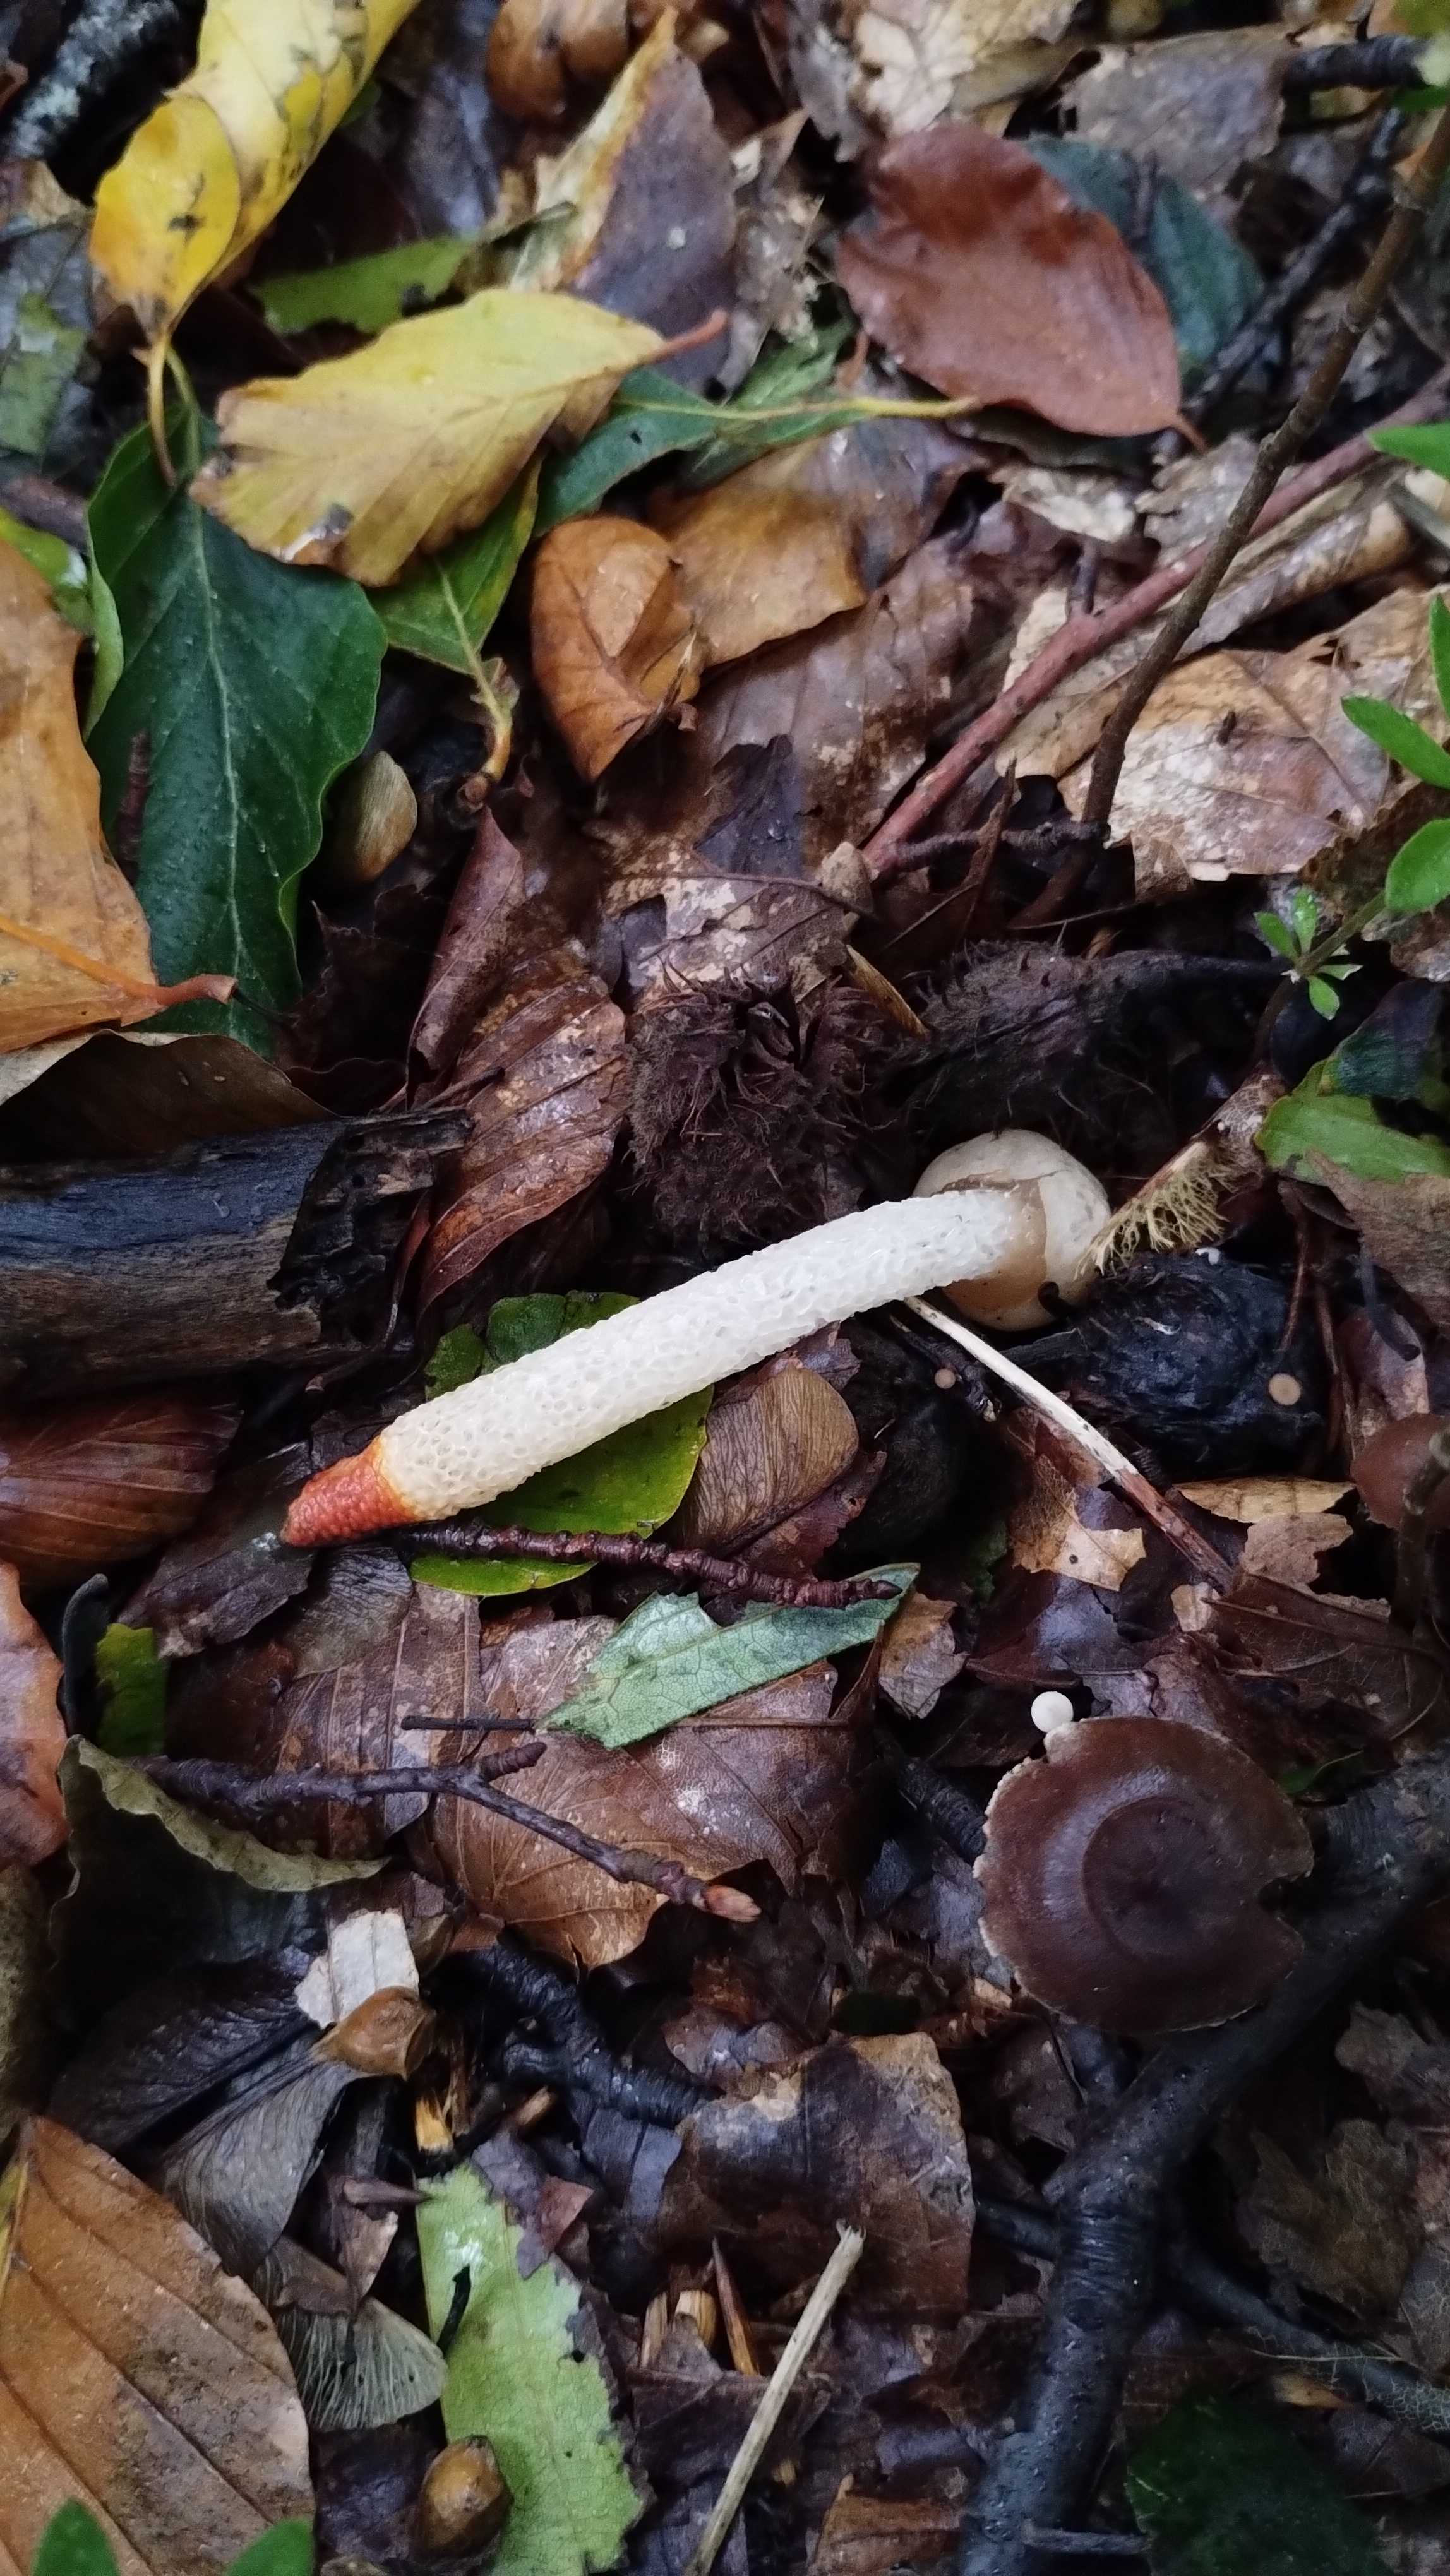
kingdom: Fungi
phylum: Basidiomycota
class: Agaricomycetes
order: Phallales
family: Phallaceae
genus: Mutinus
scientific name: Mutinus caninus
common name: hunde-stinksvamp
